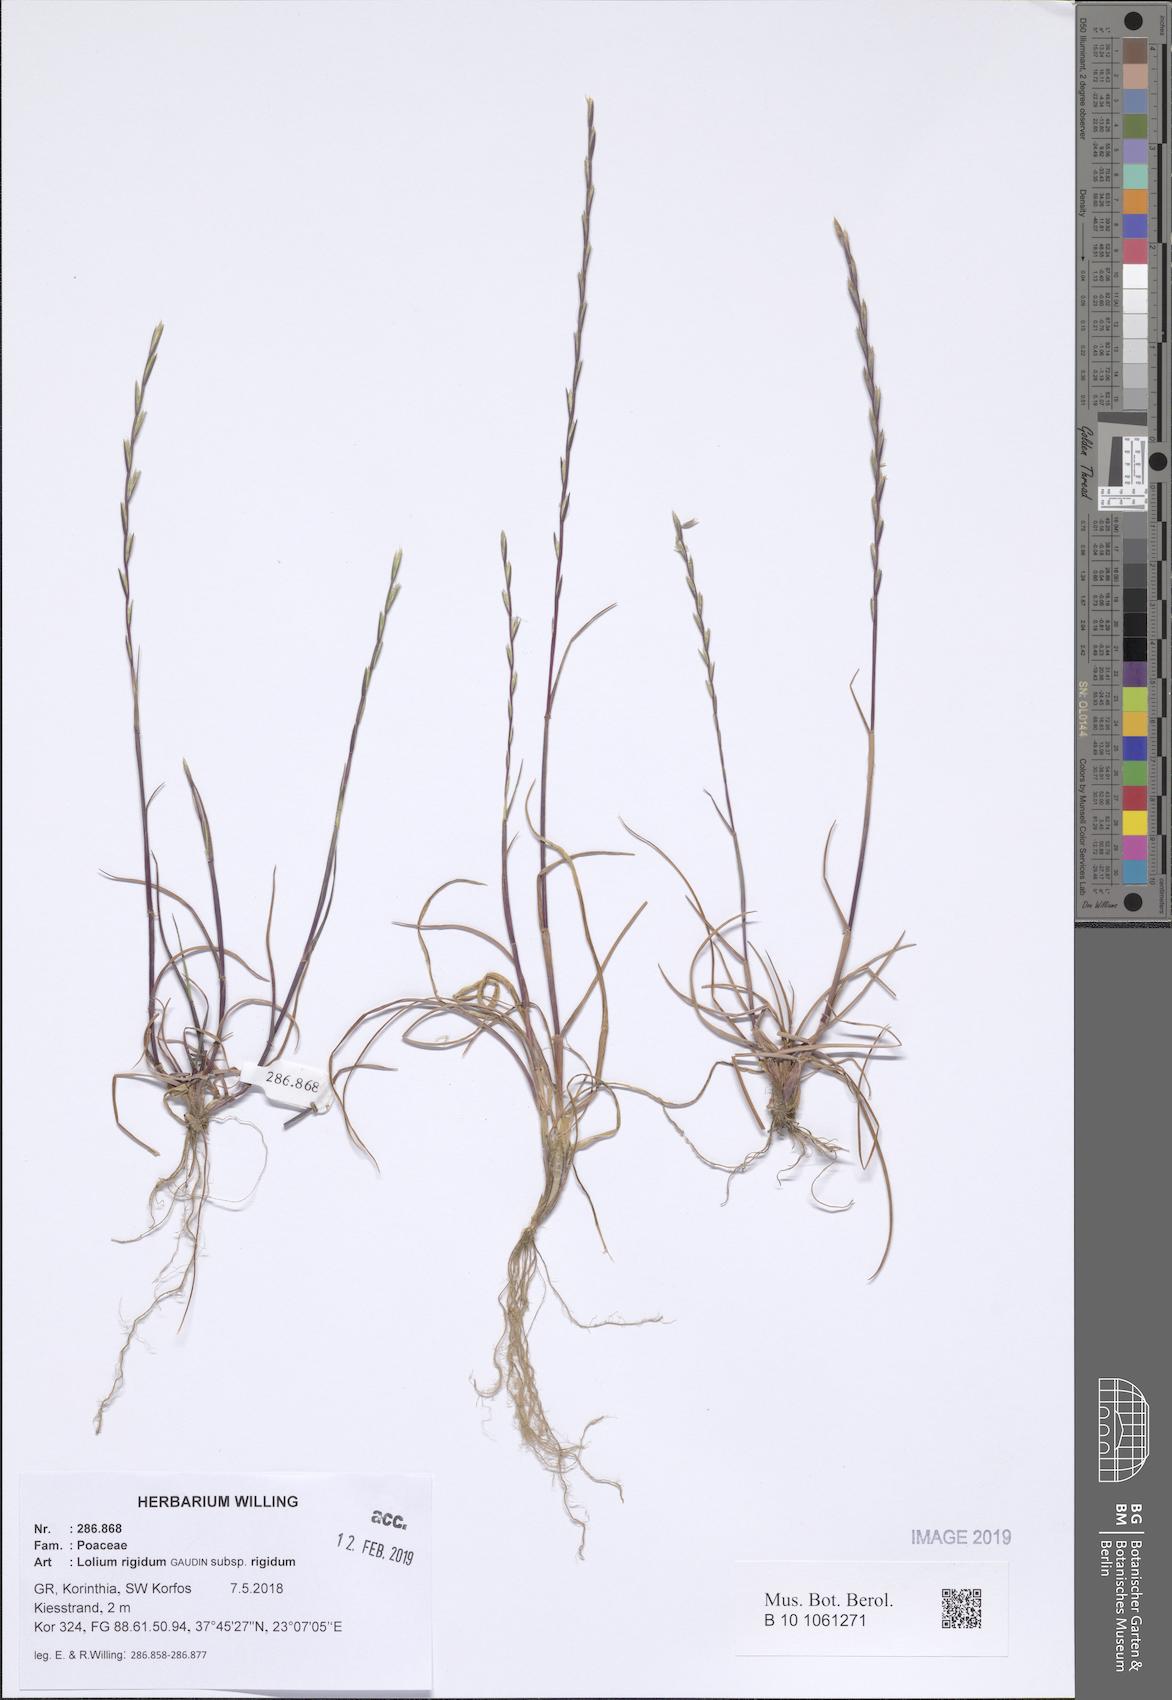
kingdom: Plantae
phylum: Tracheophyta
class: Liliopsida
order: Poales
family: Poaceae
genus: Lolium
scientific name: Lolium rigidum
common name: Wimmera ryegrass
